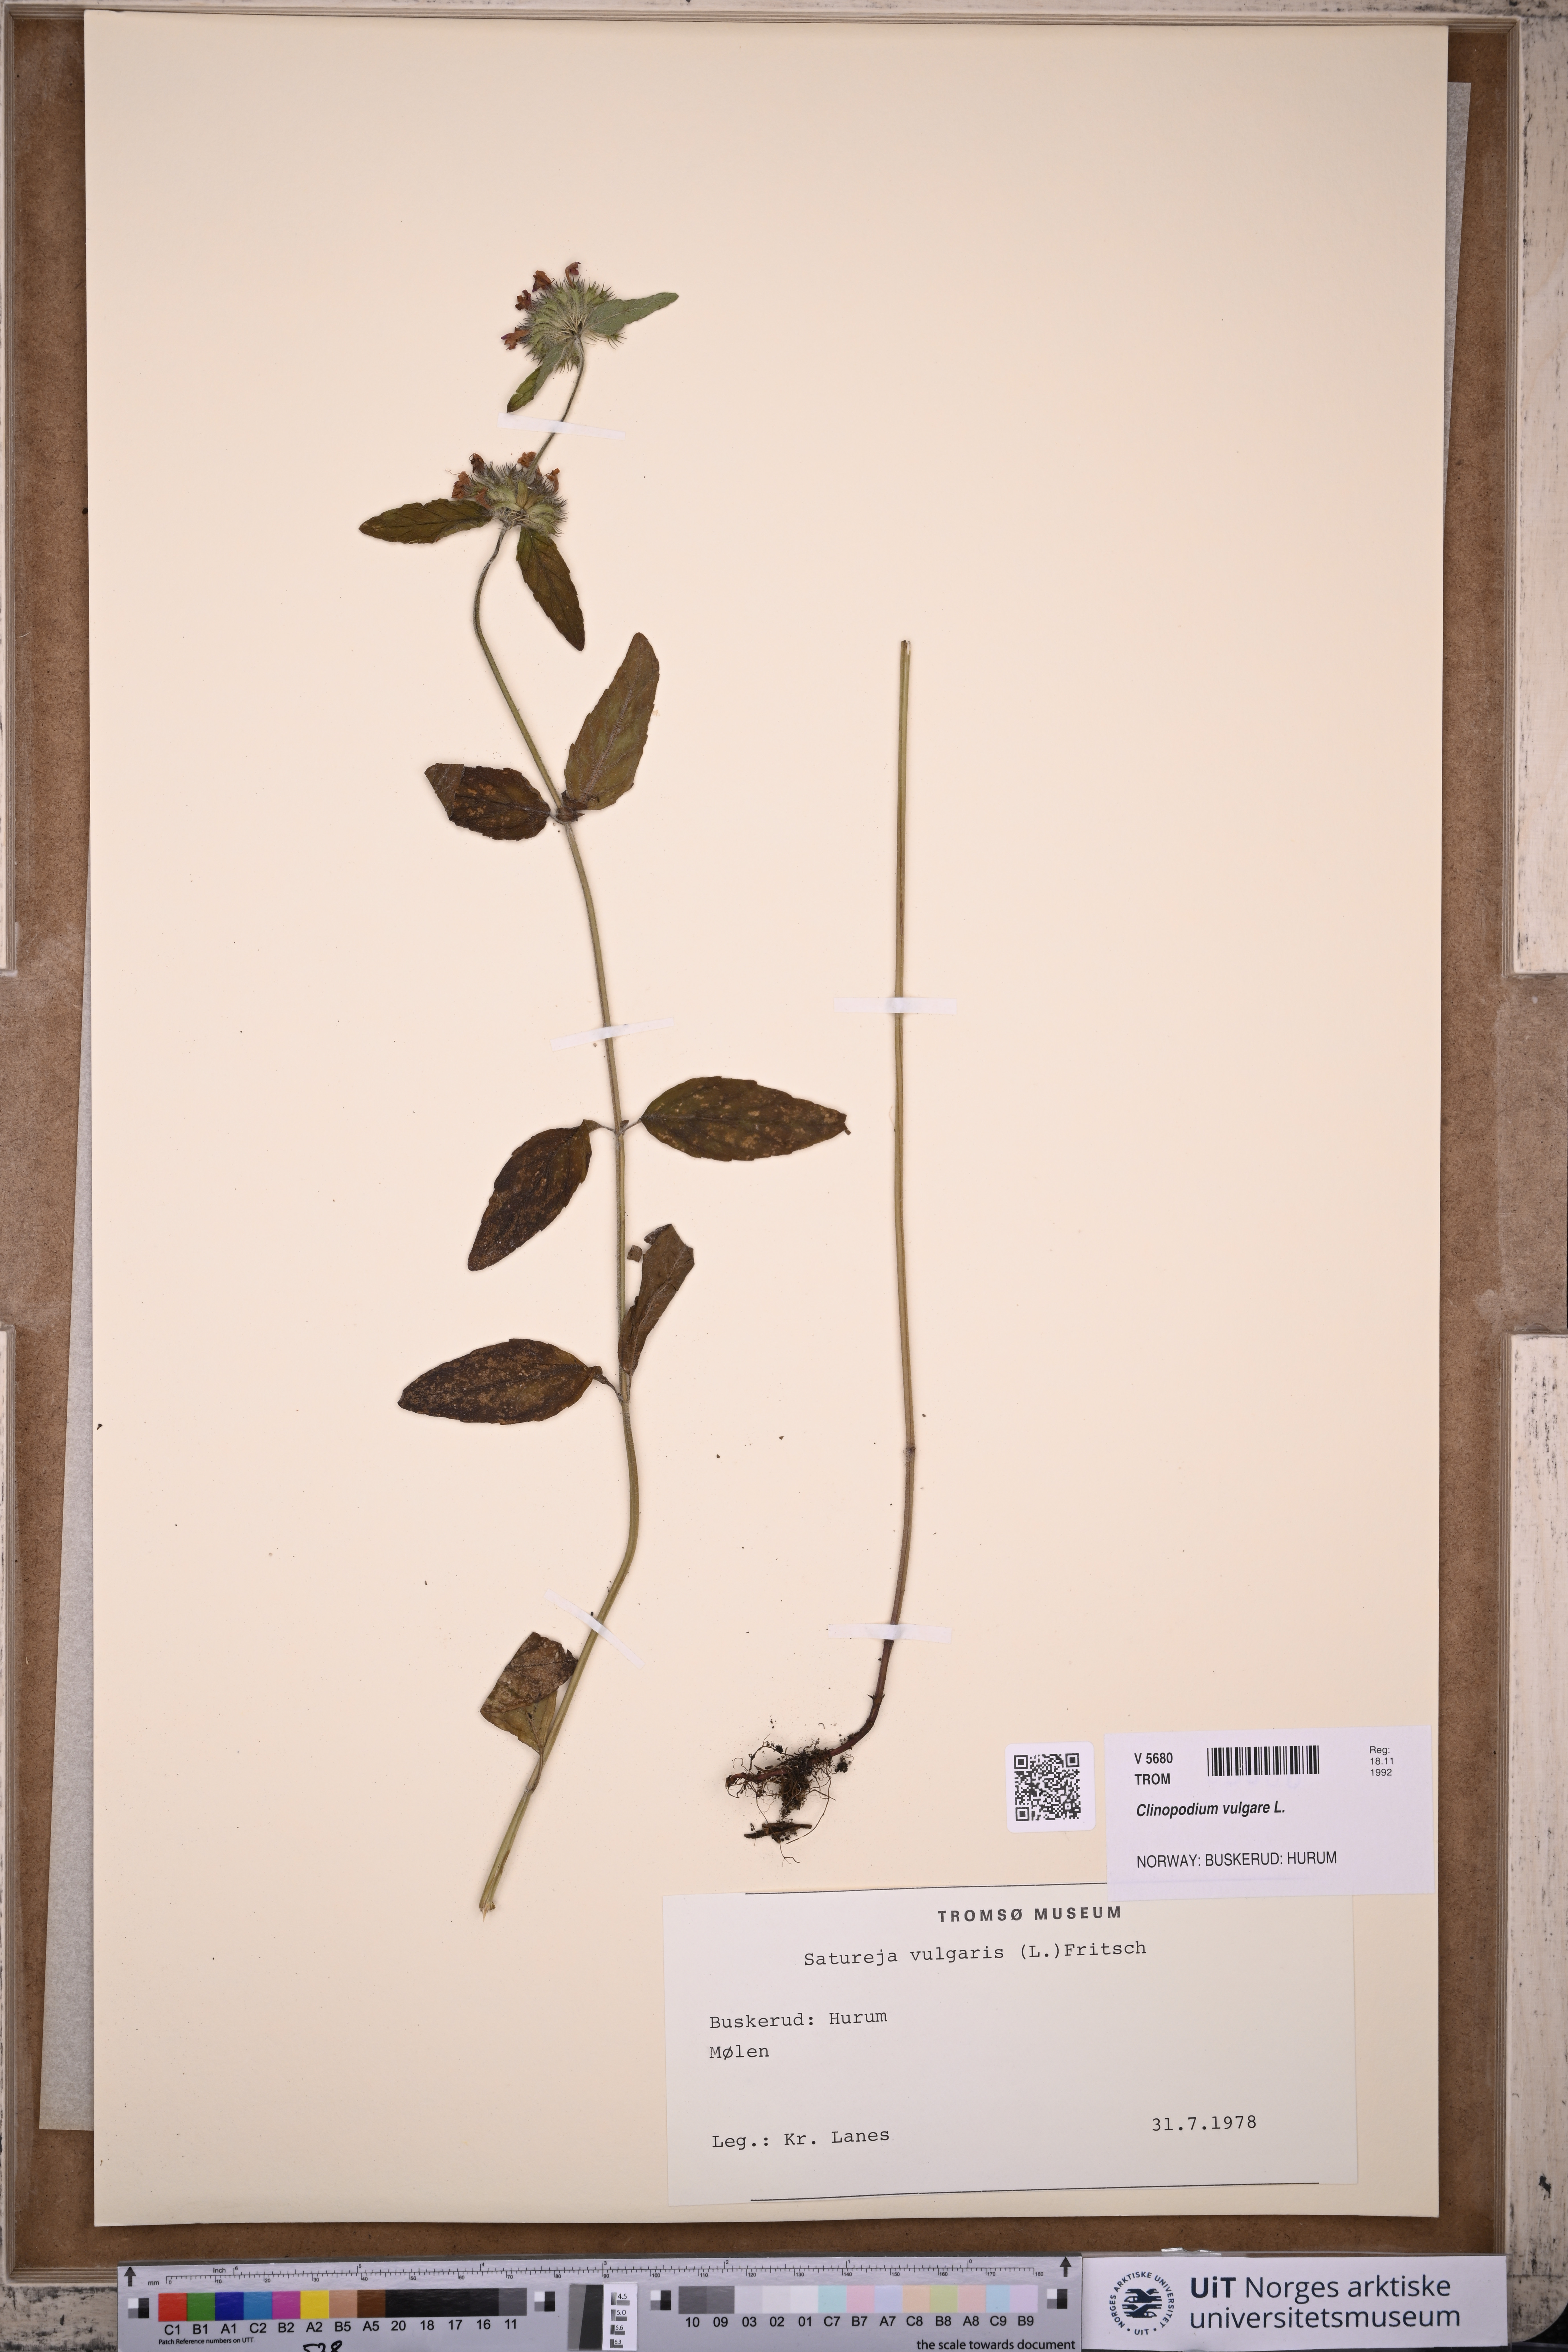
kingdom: Plantae
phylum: Tracheophyta
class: Magnoliopsida
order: Lamiales
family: Lamiaceae
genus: Clinopodium
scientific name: Clinopodium vulgare
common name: Wild basil
